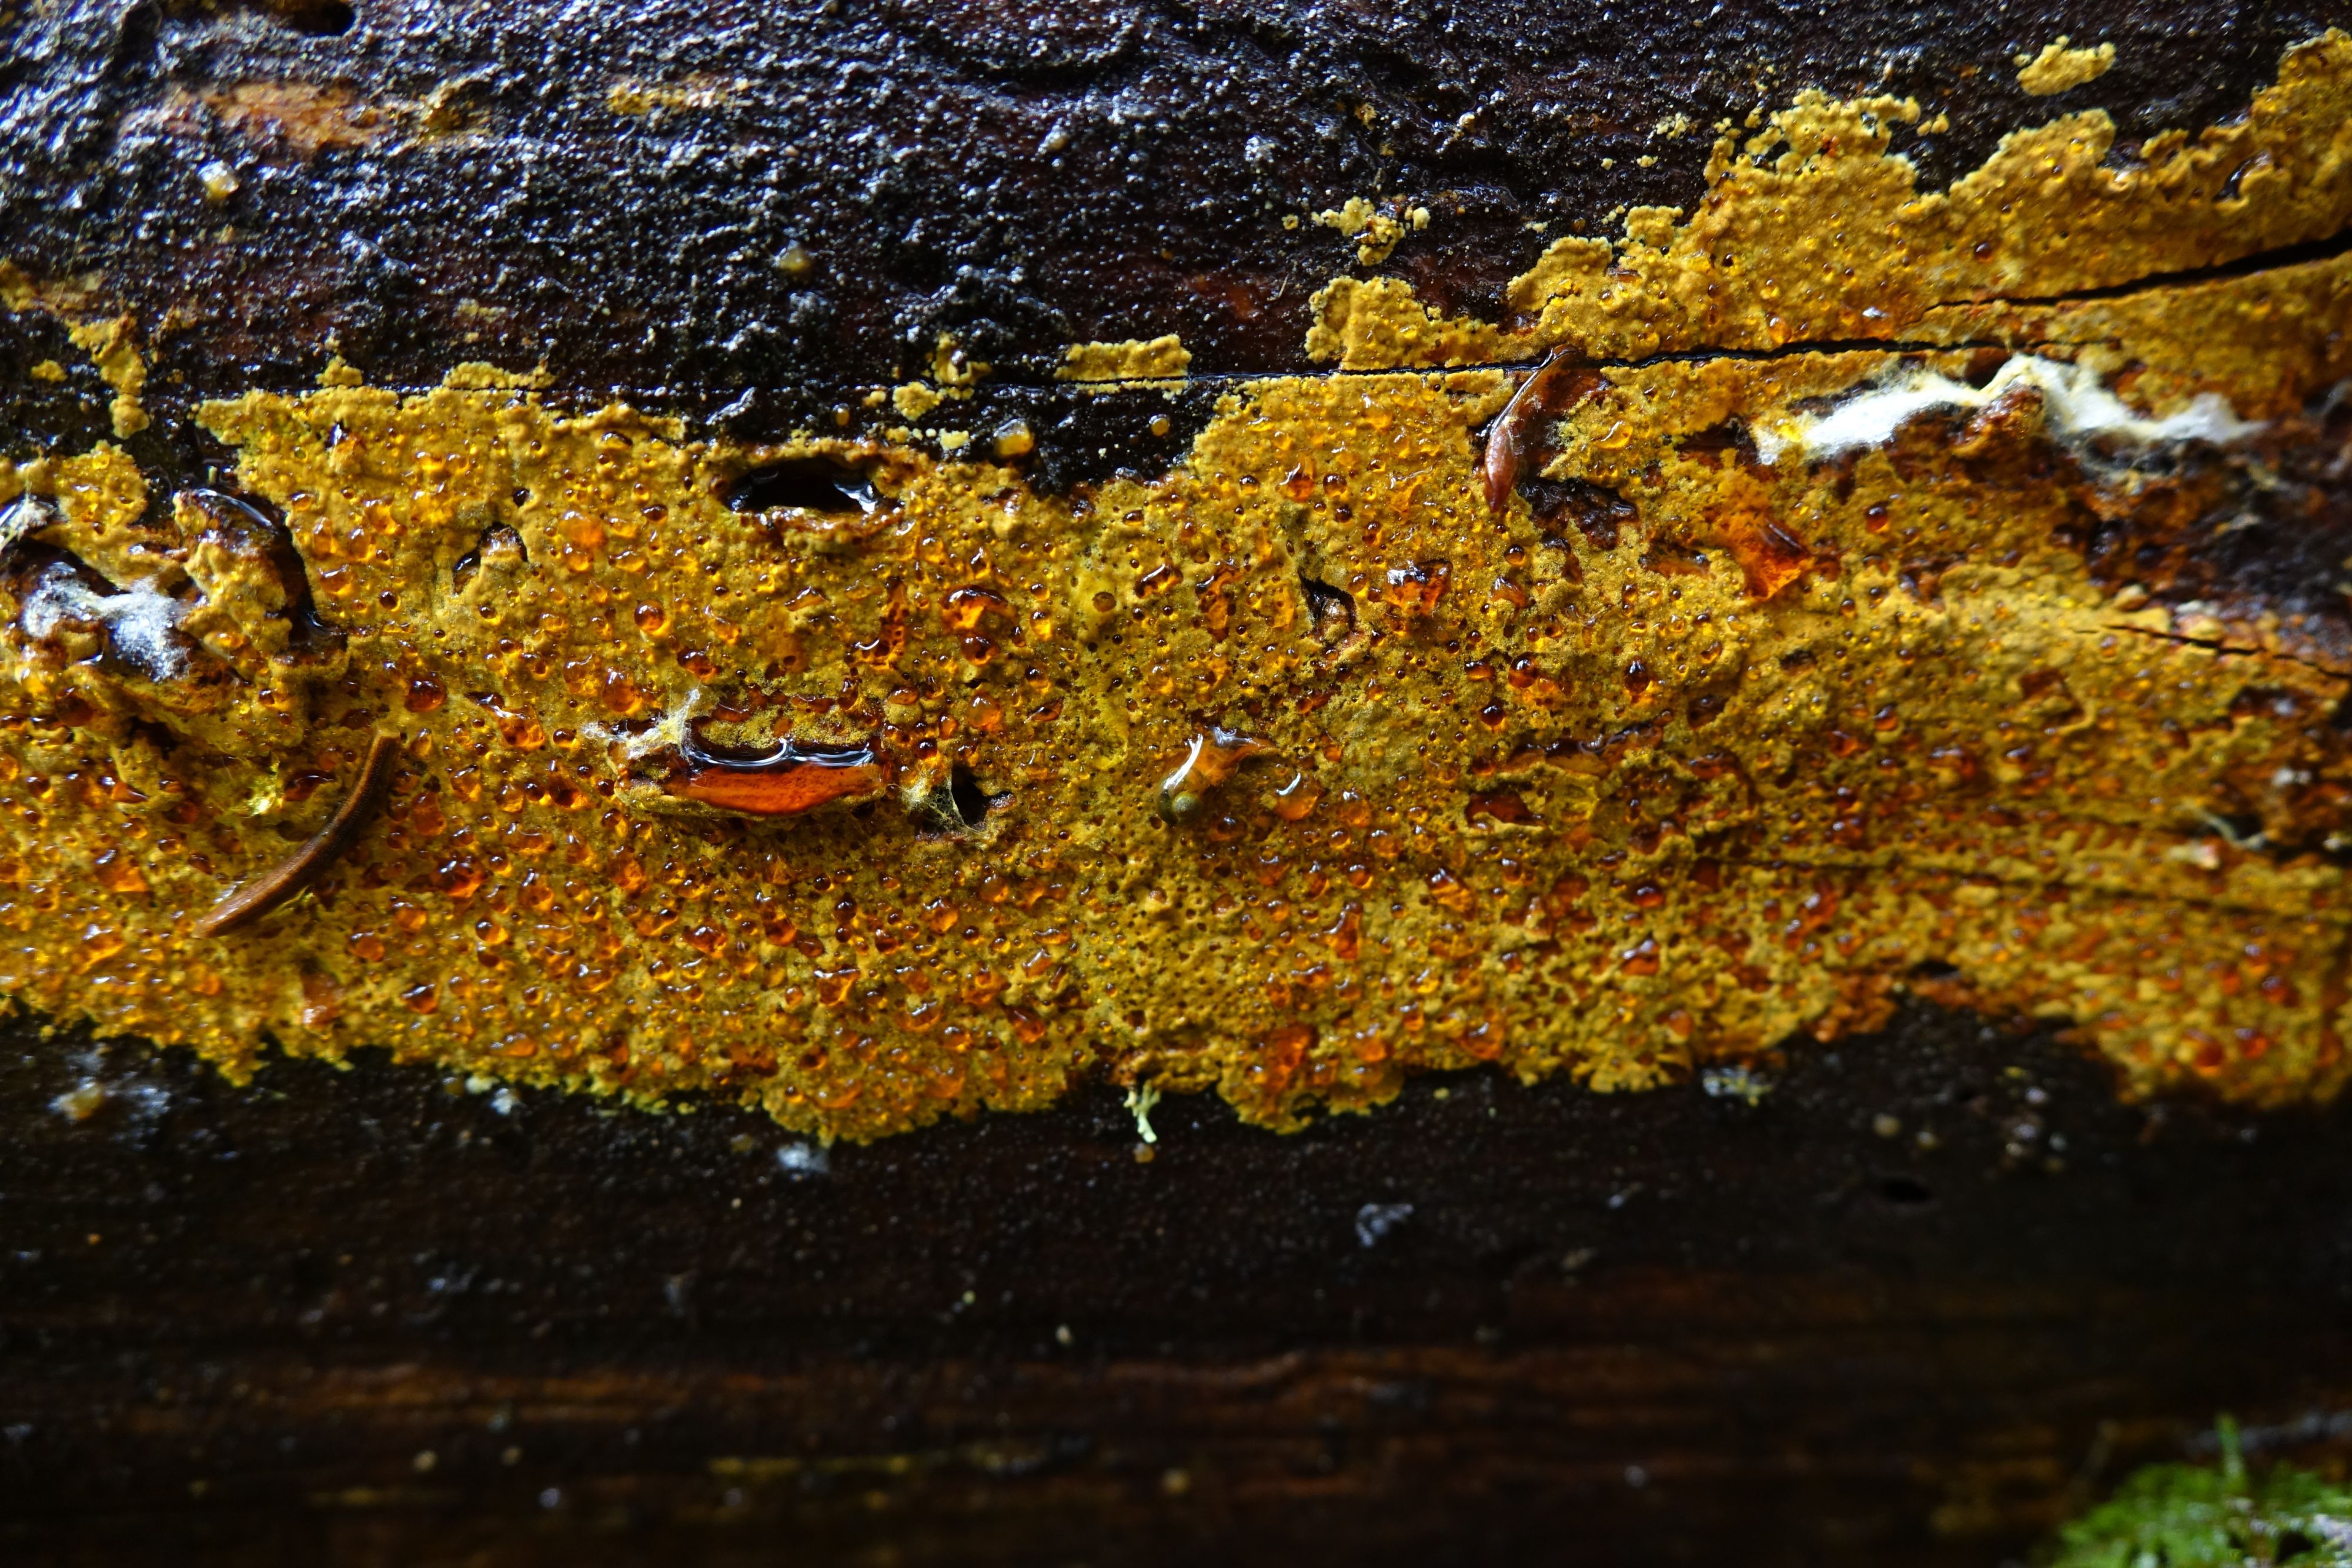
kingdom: Fungi
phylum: Basidiomycota
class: Agaricomycetes
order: Polyporales
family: Sparassidaceae
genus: Crustoderma
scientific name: Crustoderma dryinum
